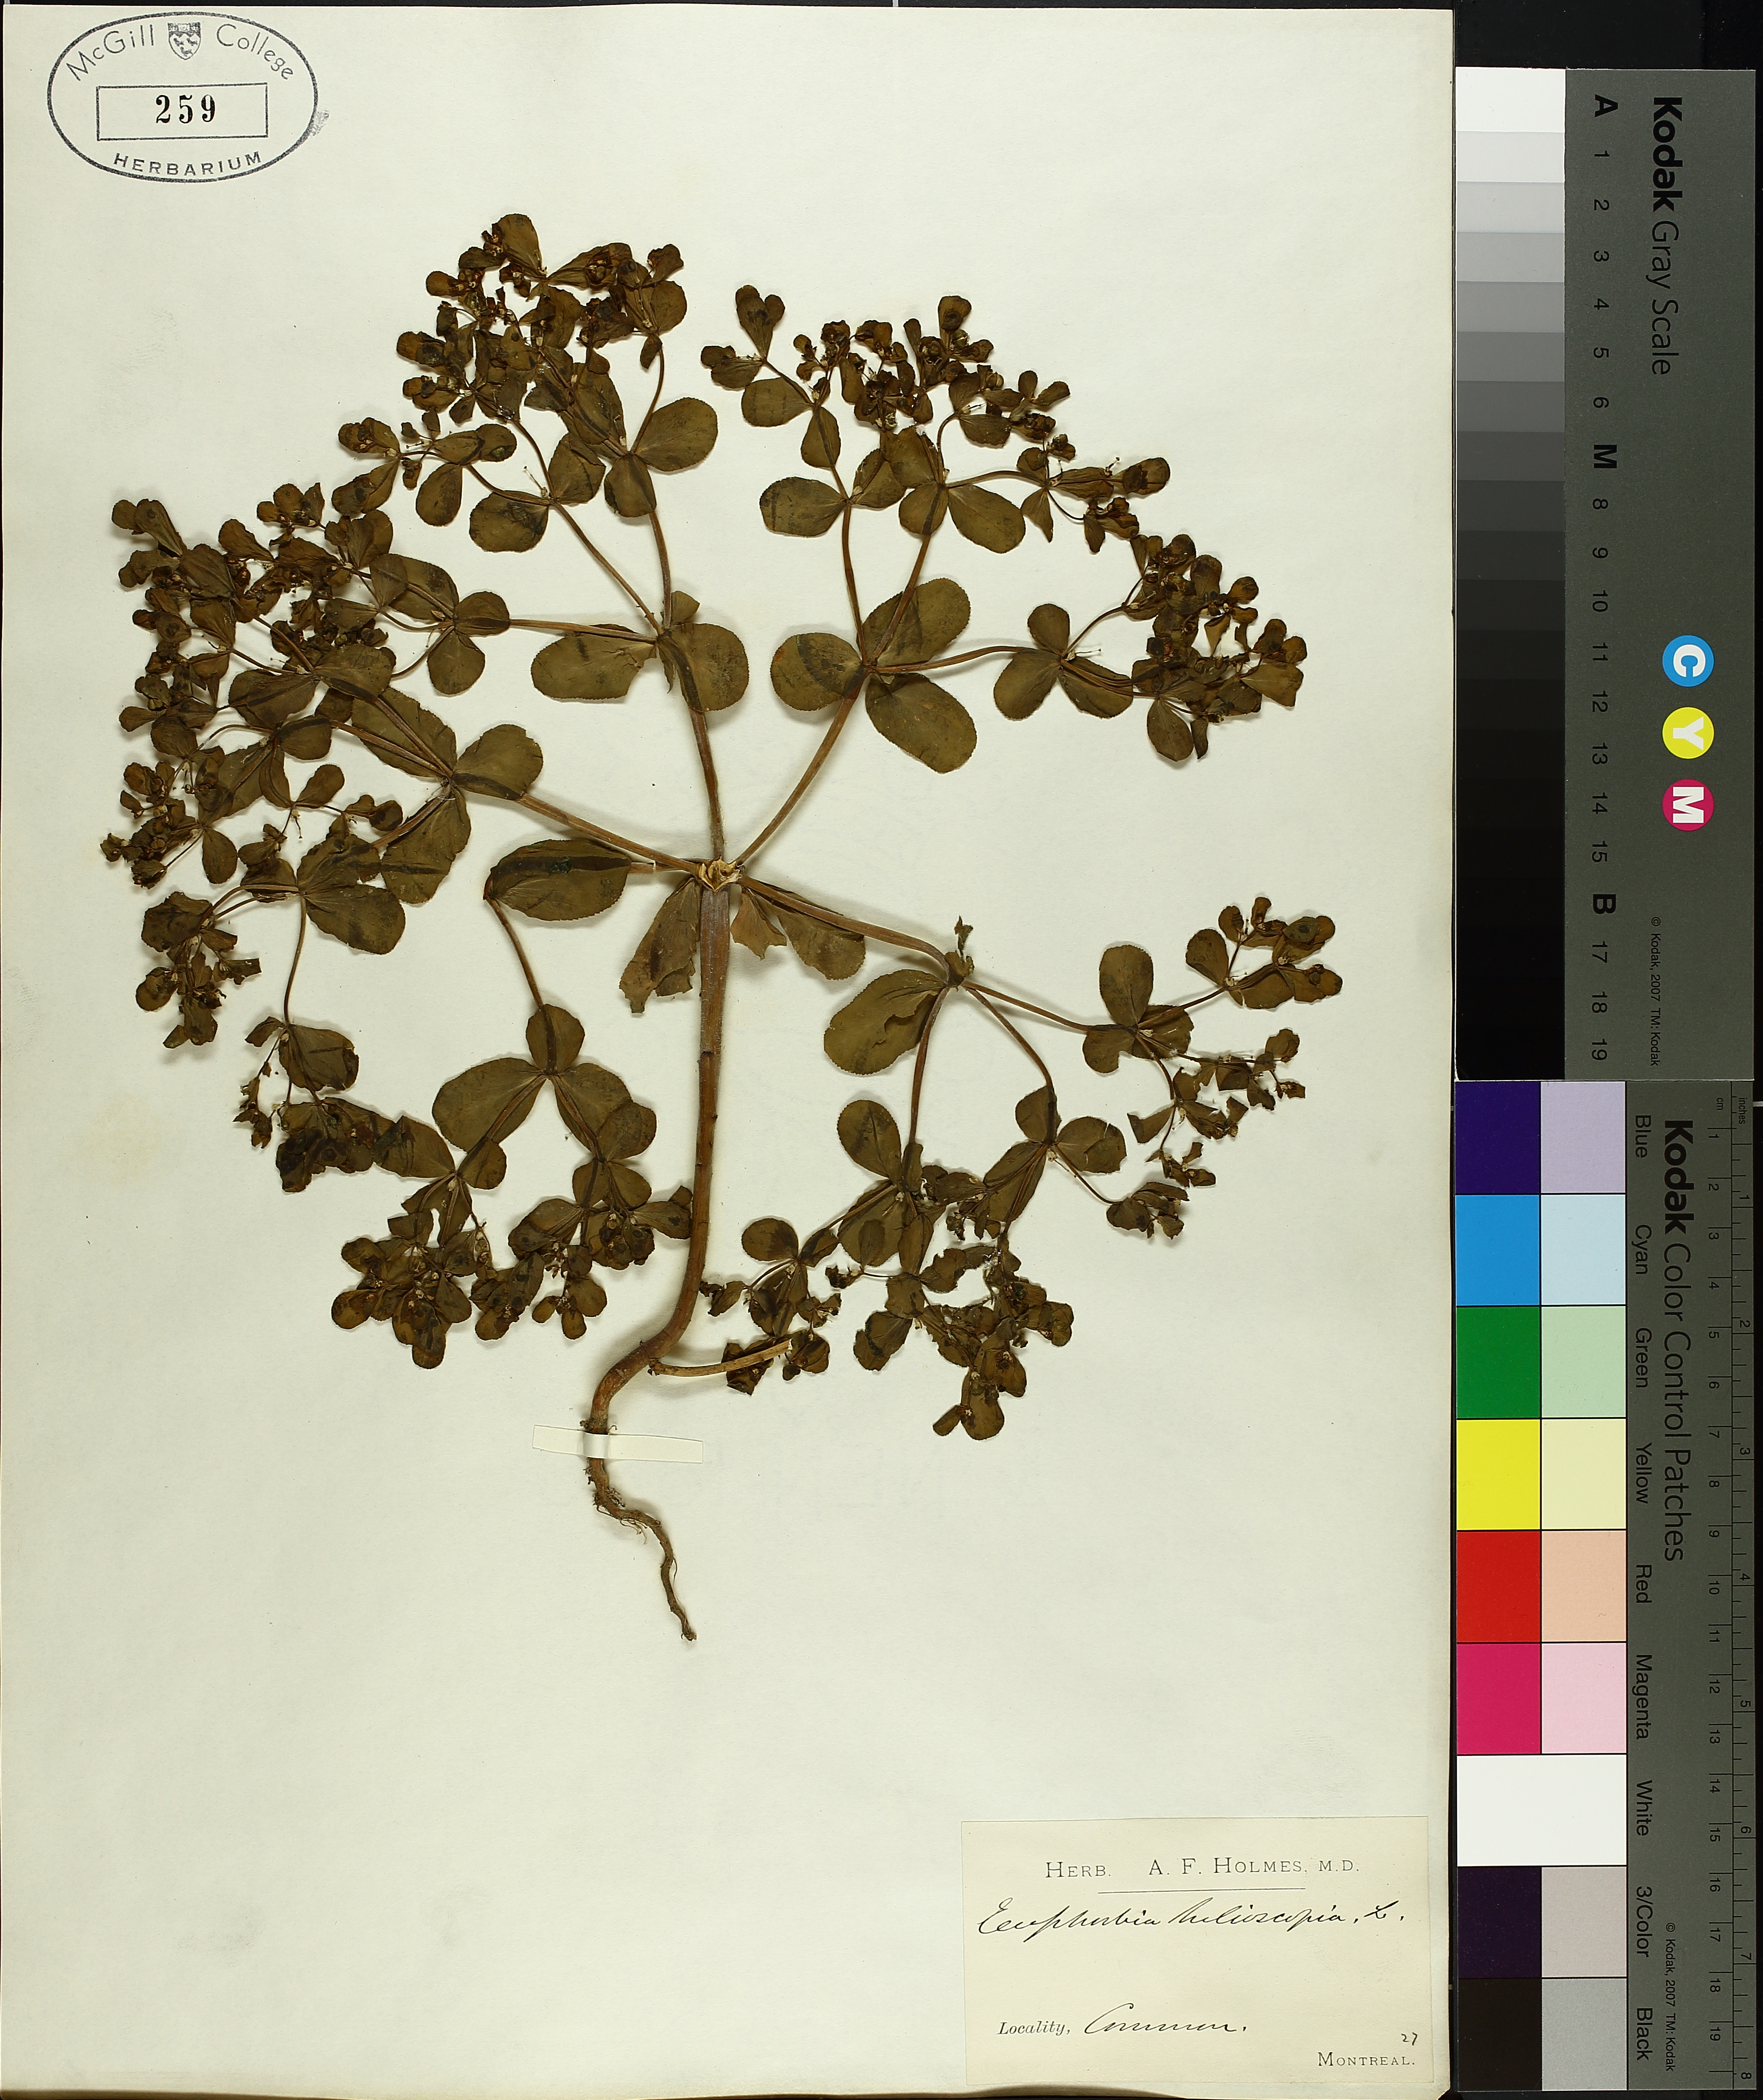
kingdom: Plantae
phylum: Tracheophyta
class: Magnoliopsida
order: Malpighiales
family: Euphorbiaceae
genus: Euphorbia
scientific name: Euphorbia helioscopia
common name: Sun spurge
